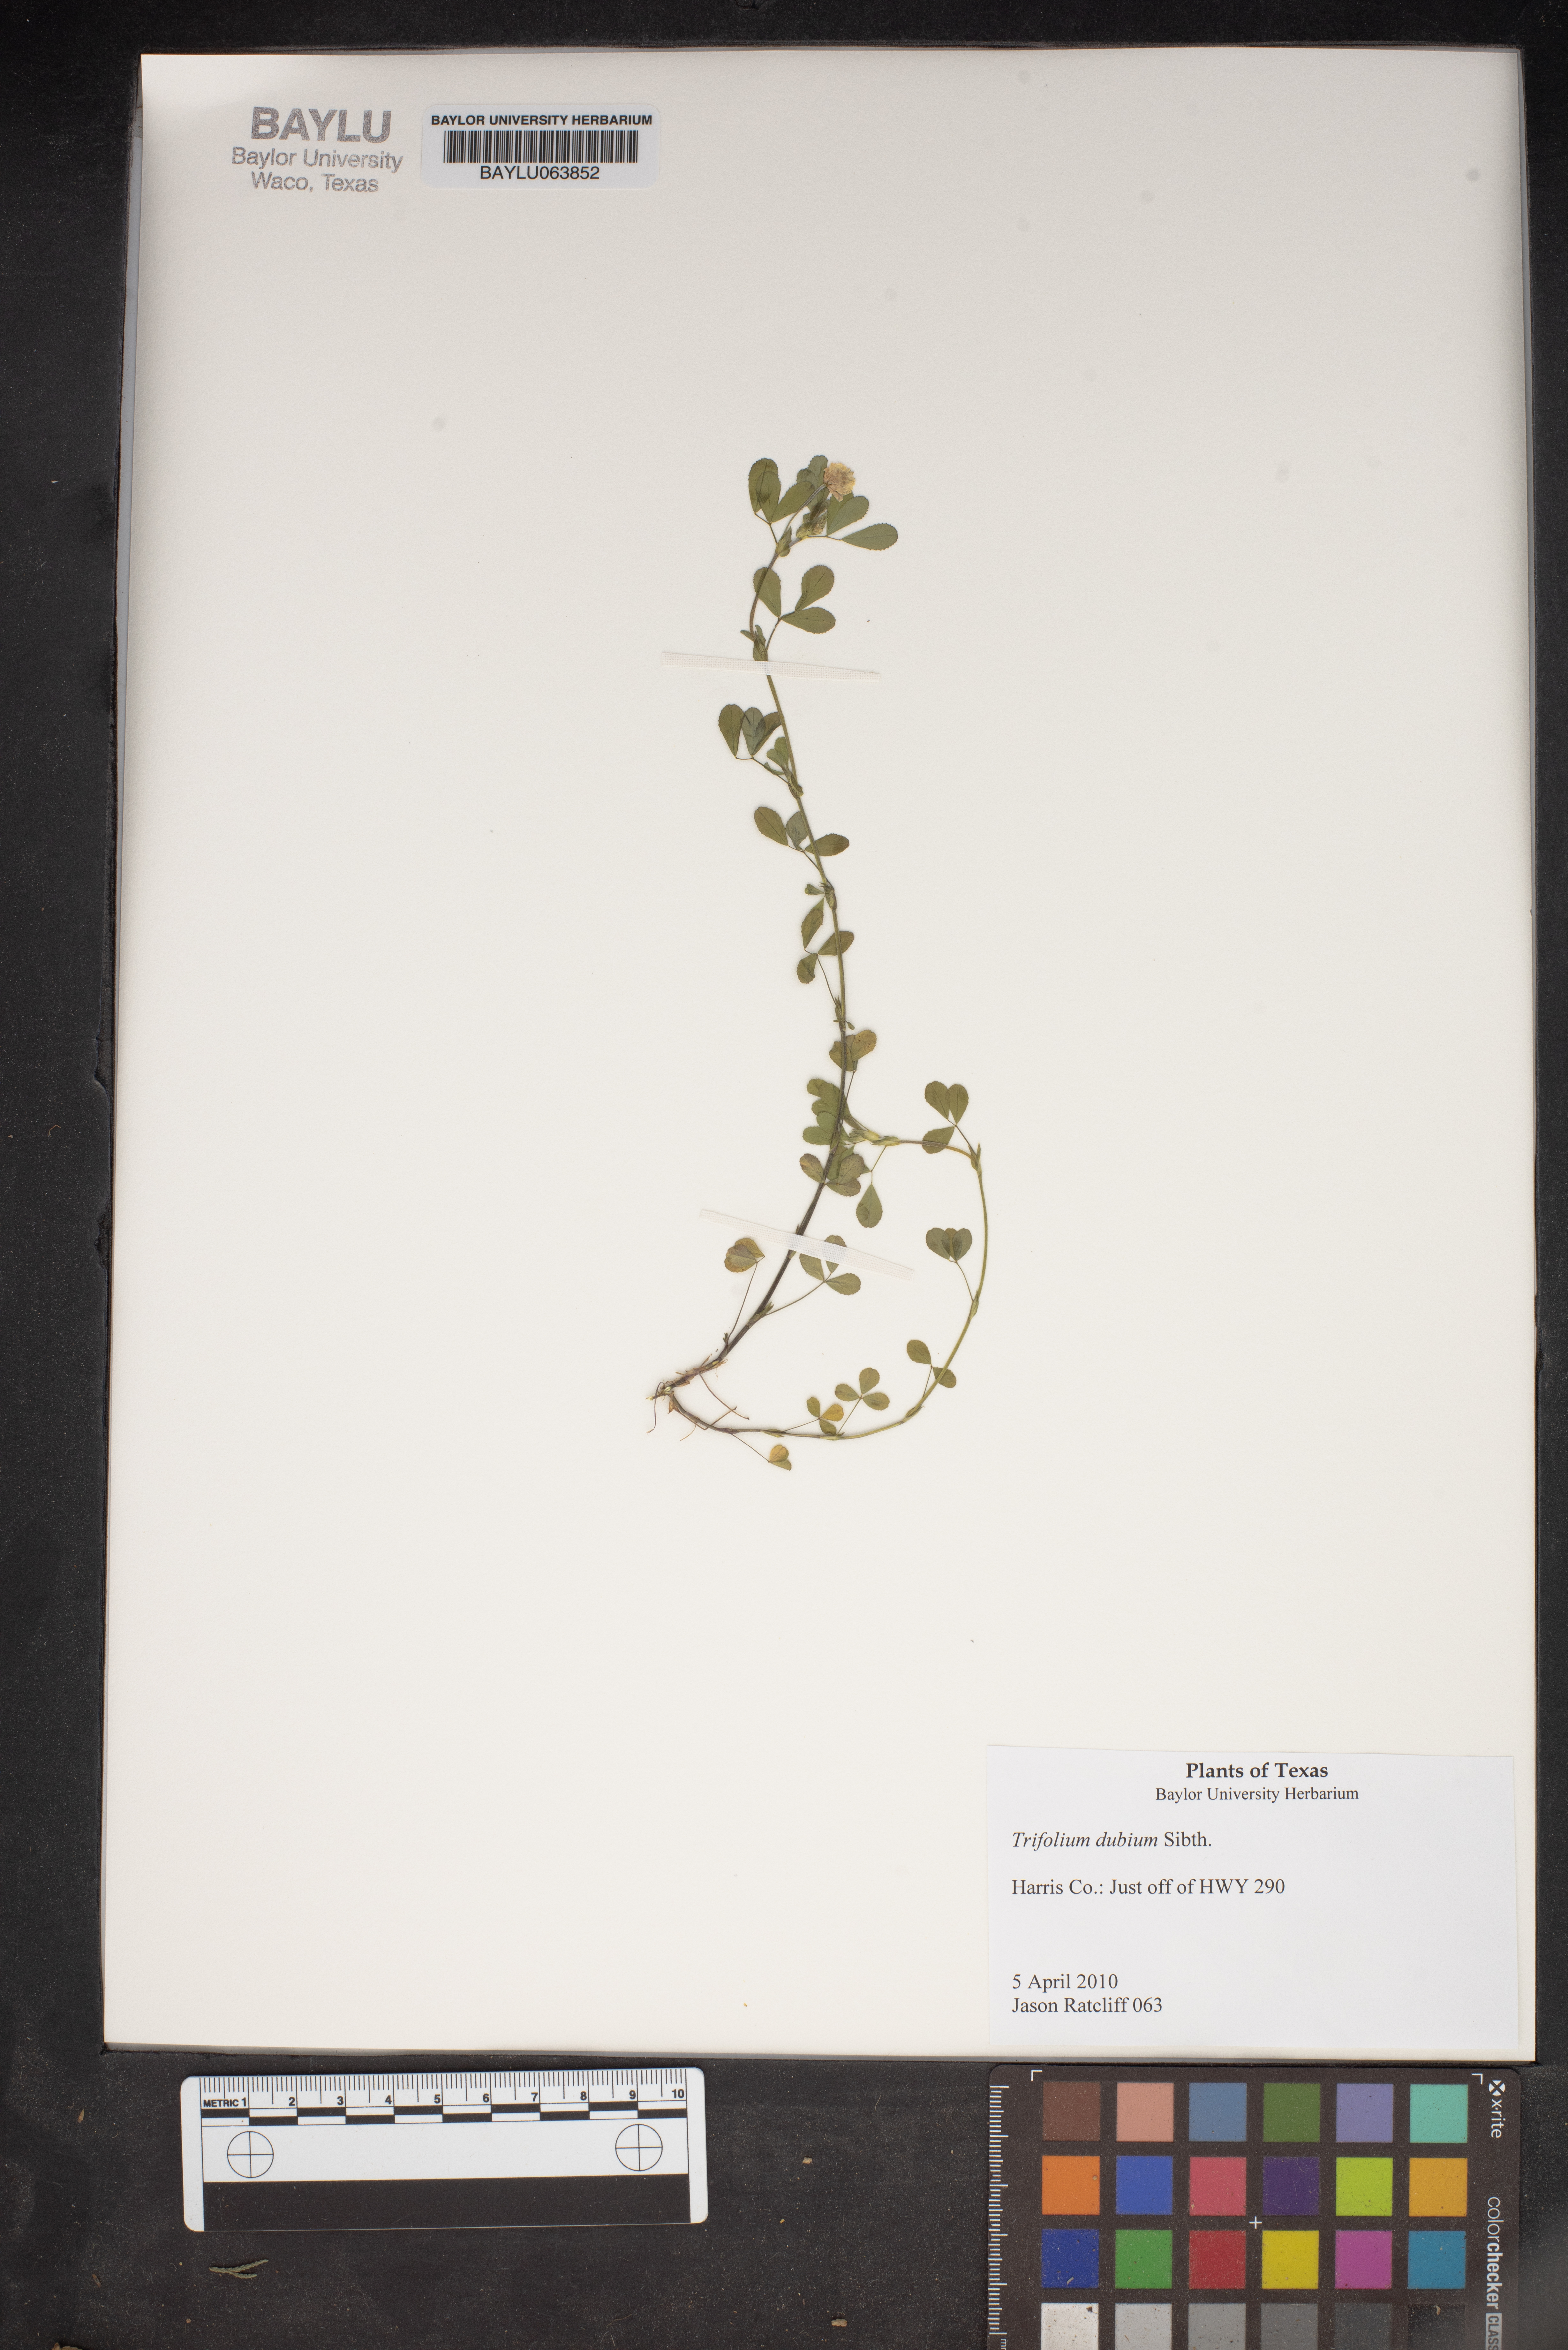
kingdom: Plantae
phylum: Tracheophyta
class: Magnoliopsida
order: Fabales
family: Fabaceae
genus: Trifolium
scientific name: Trifolium dubium
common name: Suckling clover
